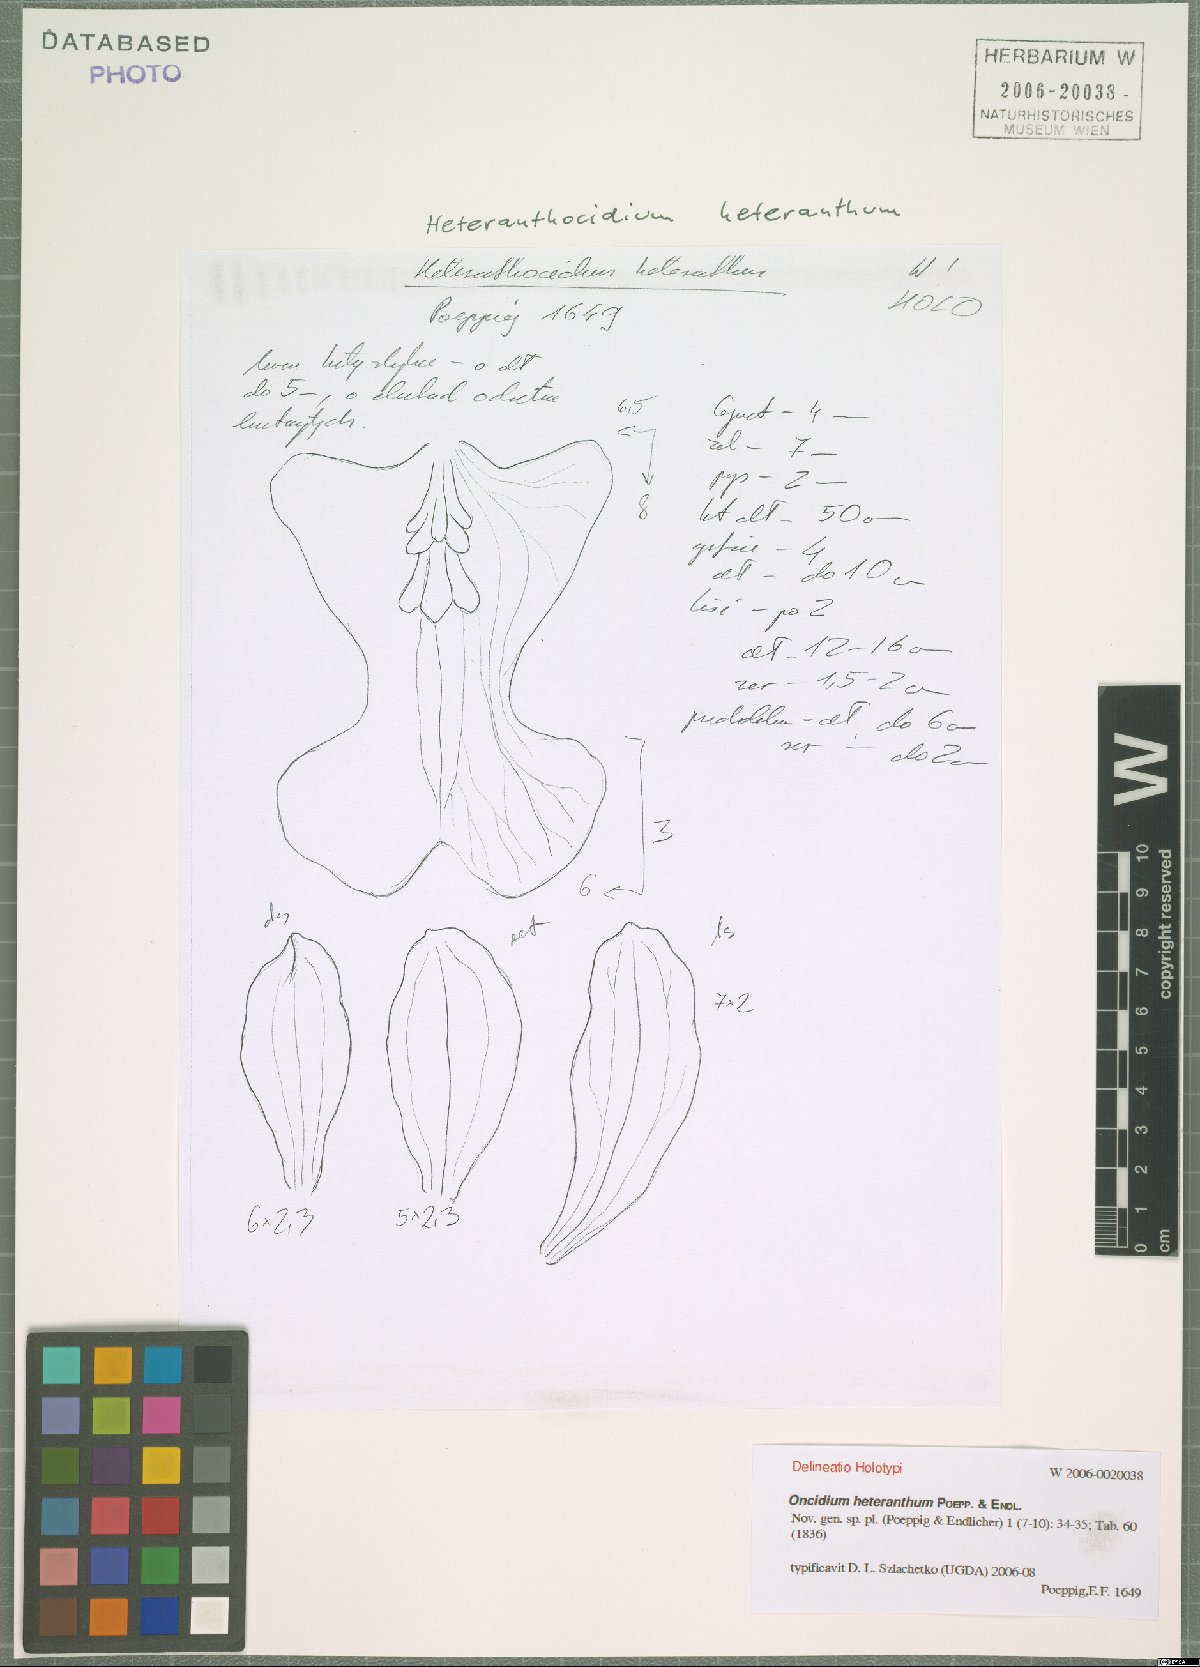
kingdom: Plantae
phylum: Tracheophyta
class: Liliopsida
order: Asparagales
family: Orchidaceae
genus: Oncidium
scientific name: Oncidium heteranthum
